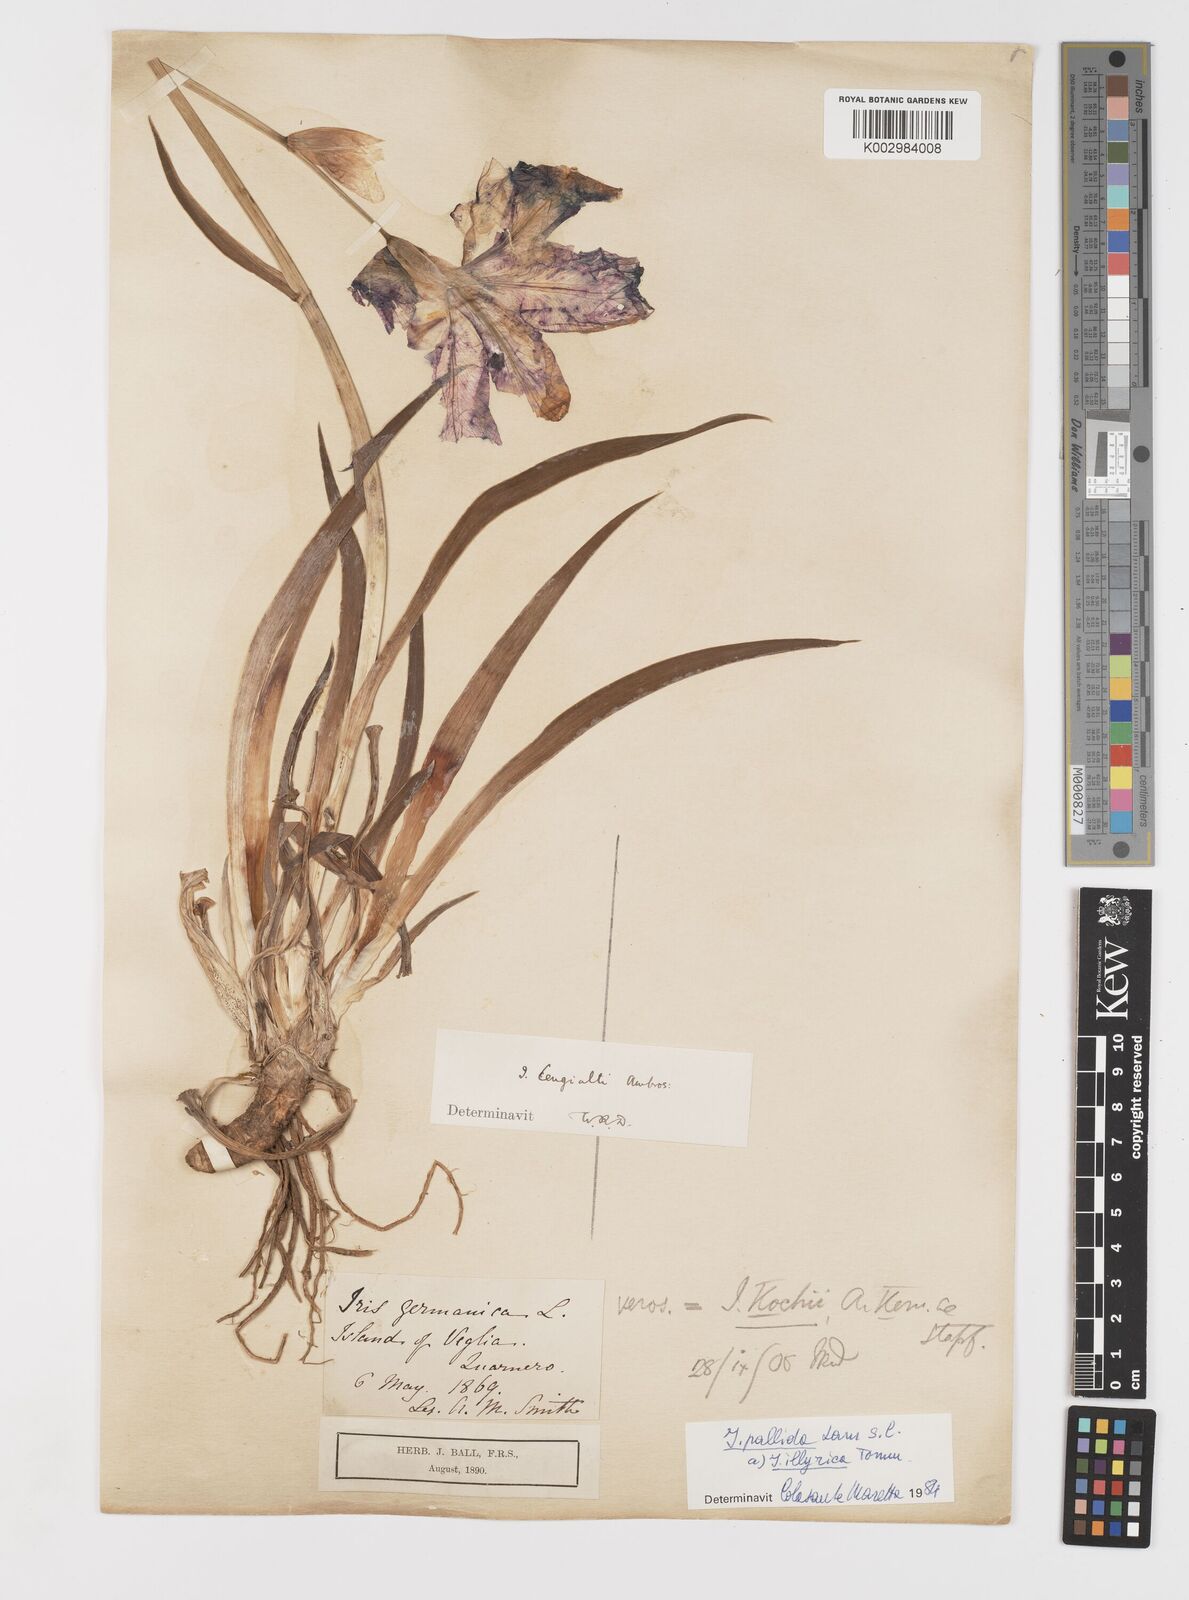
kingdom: Plantae
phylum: Tracheophyta
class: Liliopsida
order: Asparagales
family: Iridaceae
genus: Iris
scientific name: Iris pallida
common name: Sweet iris
